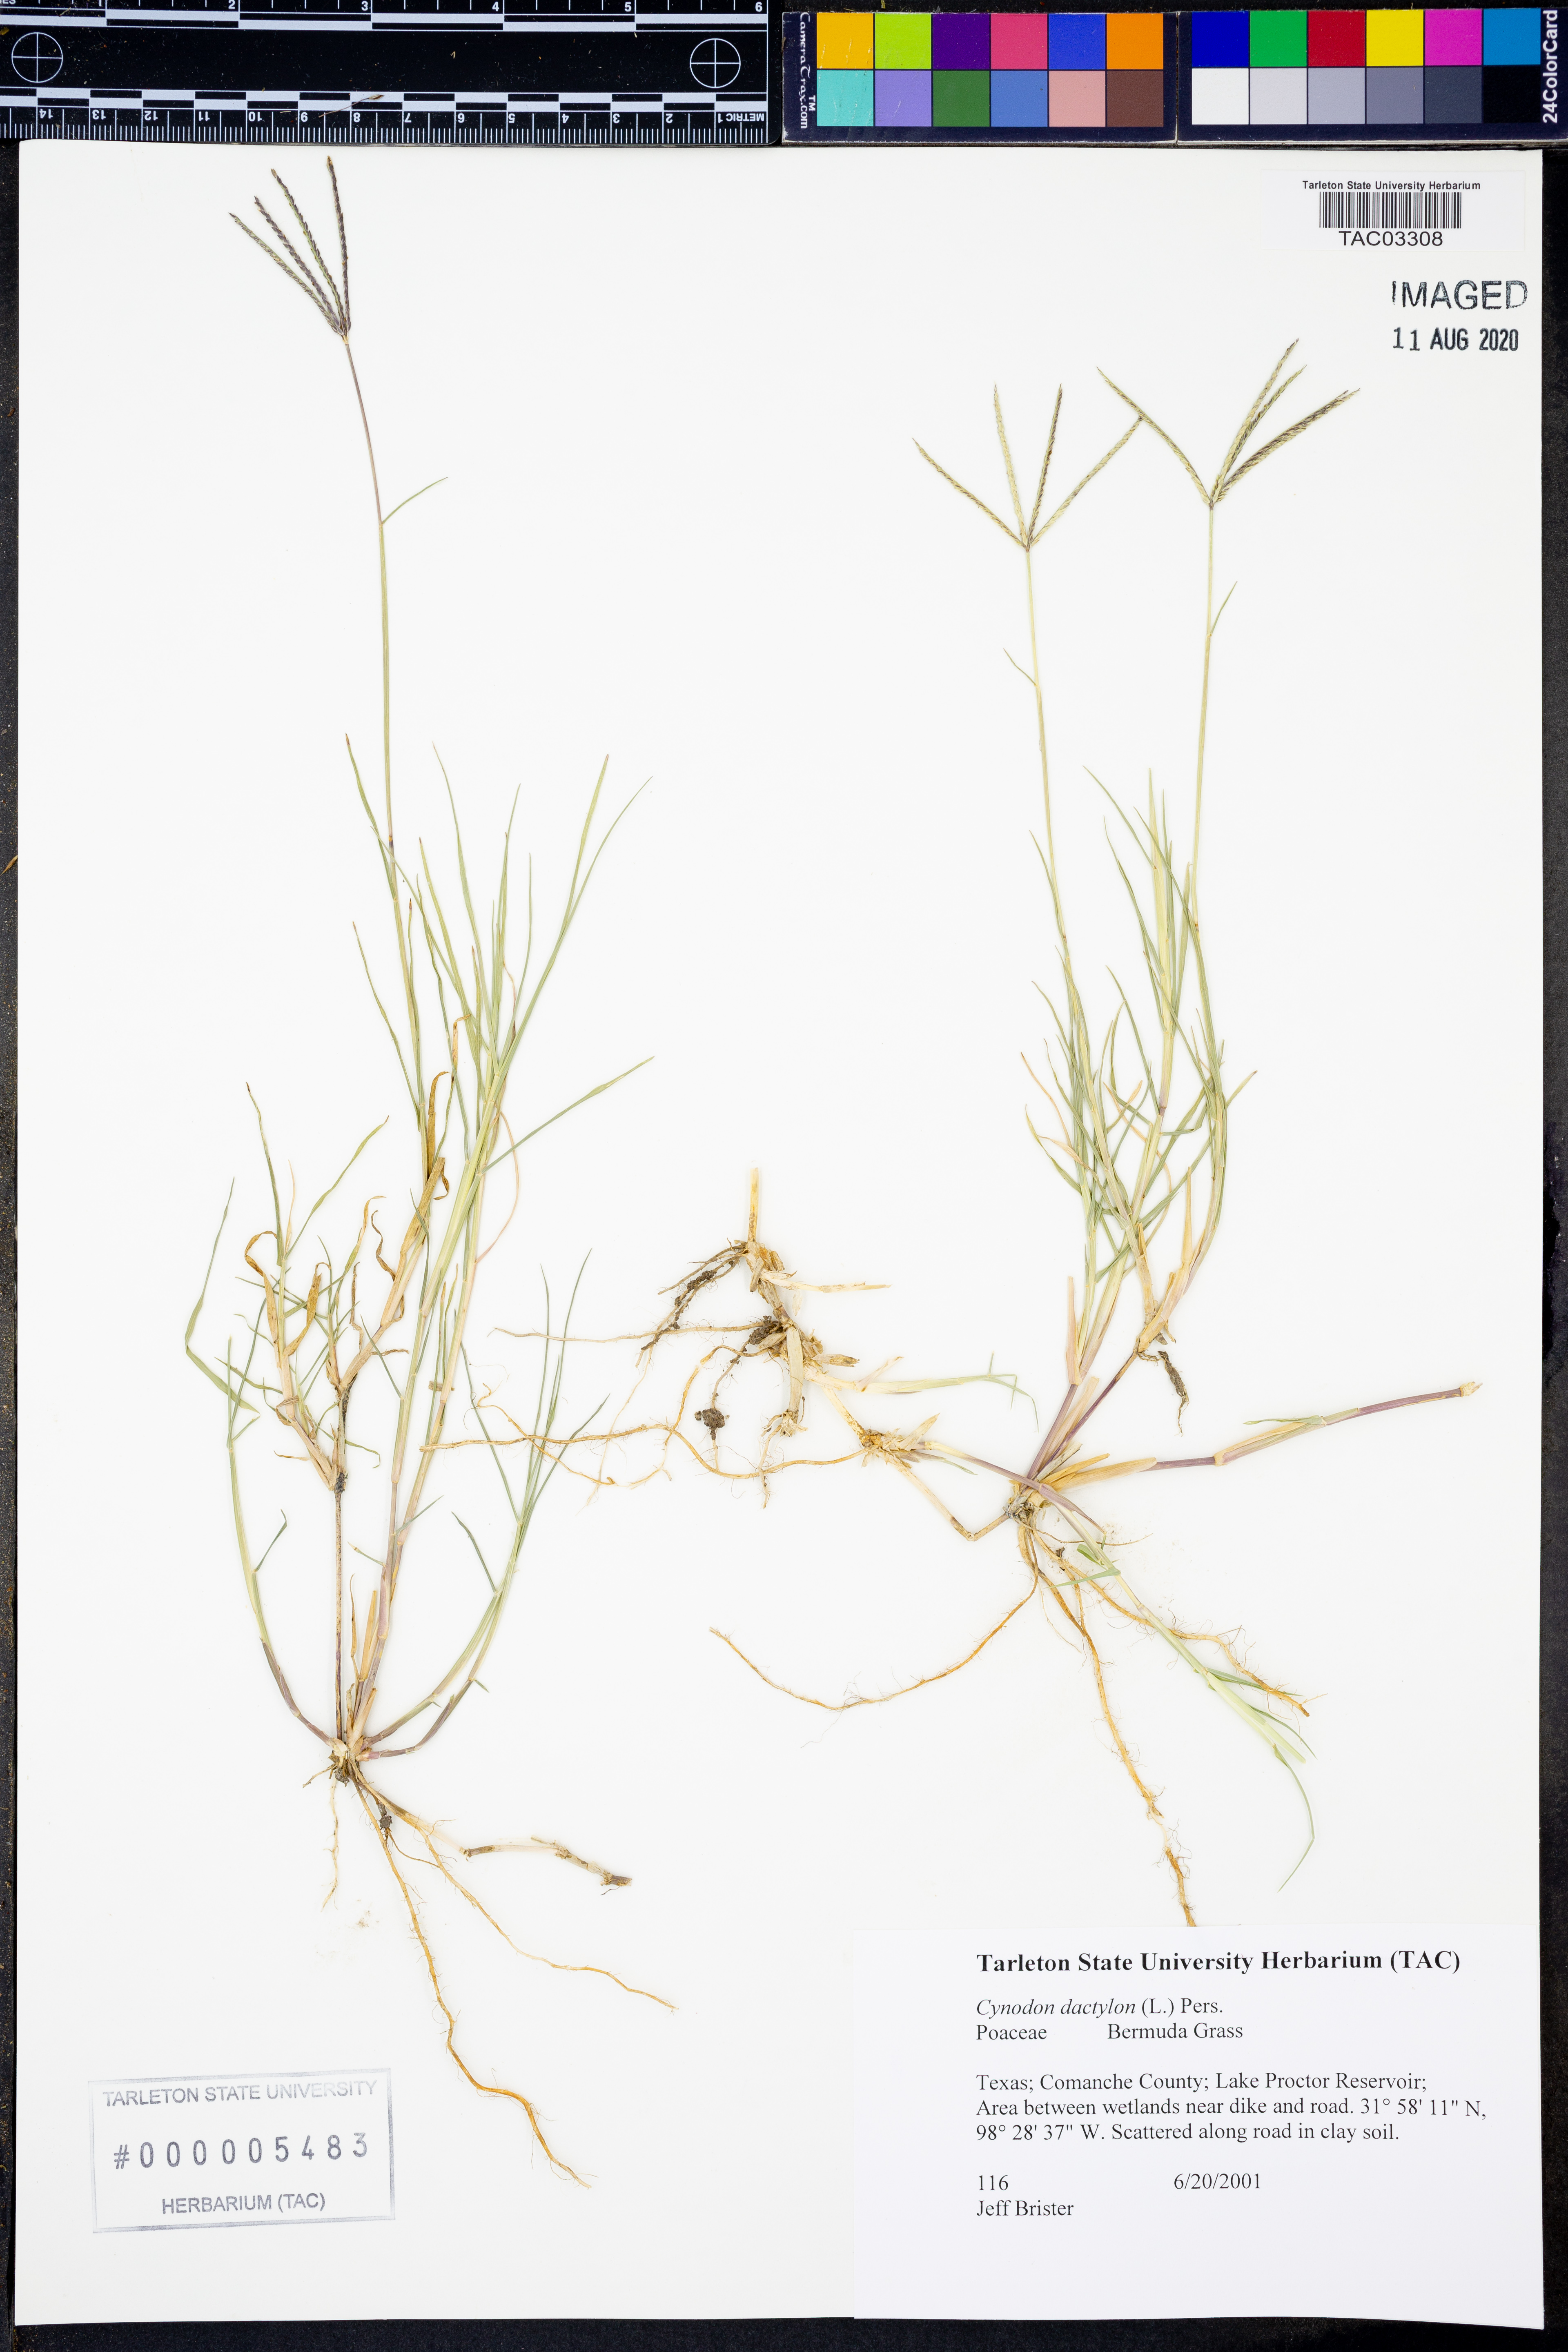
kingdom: Plantae
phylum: Tracheophyta
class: Liliopsida
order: Poales
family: Poaceae
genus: Cynodon
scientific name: Cynodon dactylon
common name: Bermuda grass
